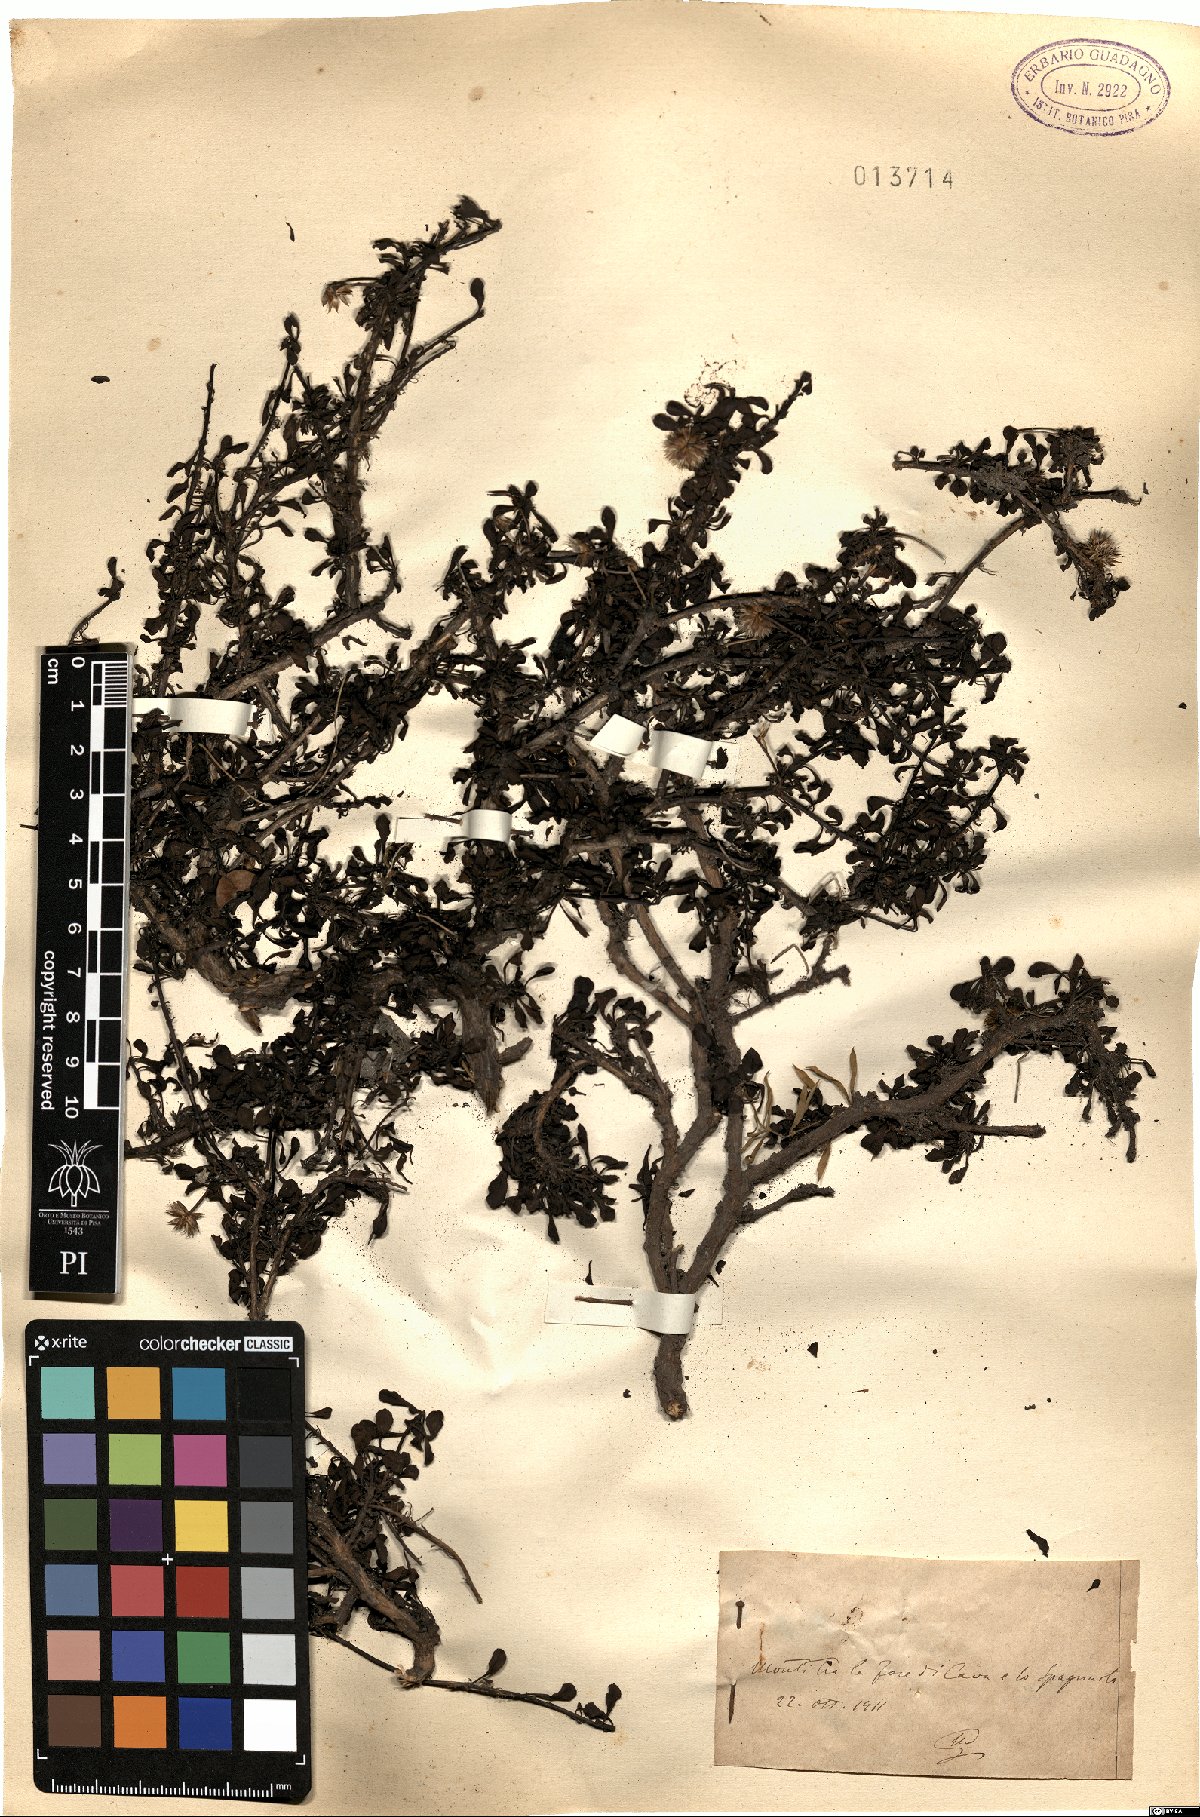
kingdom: Plantae
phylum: Tracheophyta
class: Magnoliopsida
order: Lamiales
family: Plantaginaceae
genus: Globularia
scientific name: Globularia
